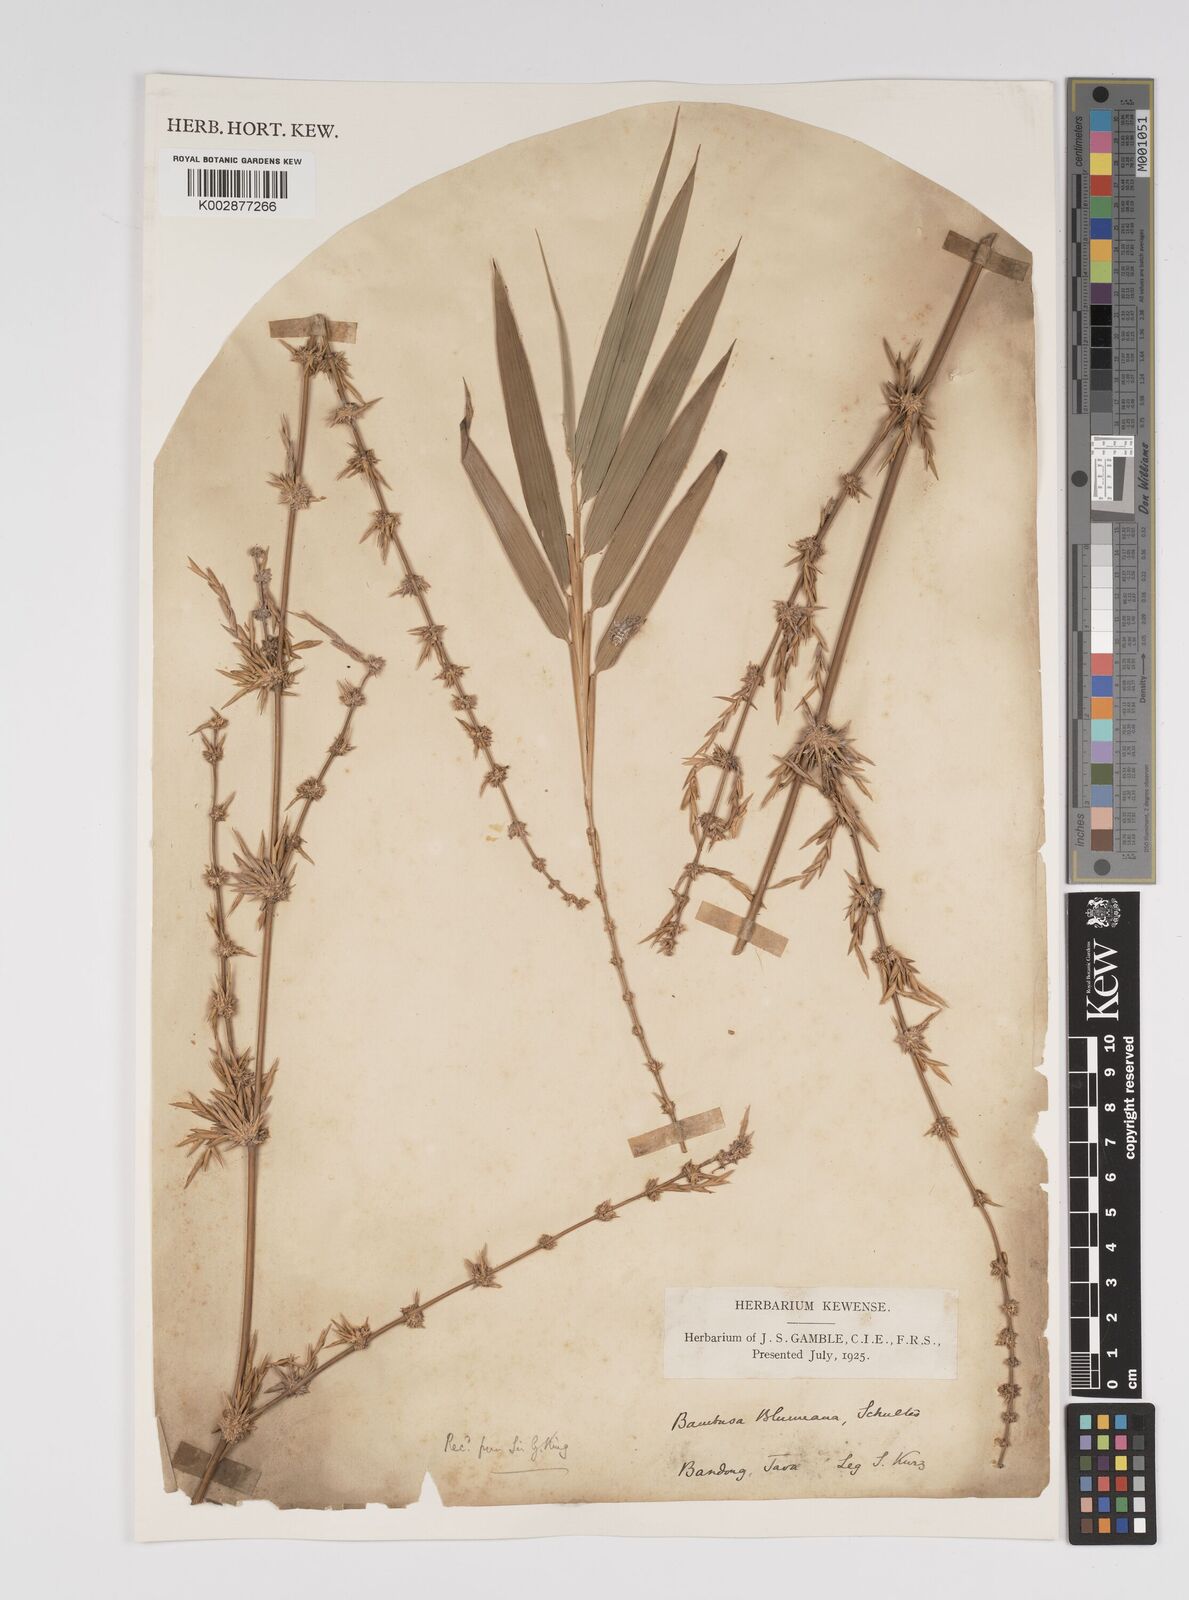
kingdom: Plantae
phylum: Tracheophyta
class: Liliopsida
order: Poales
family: Poaceae
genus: Bambusa
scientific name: Bambusa spinosa
